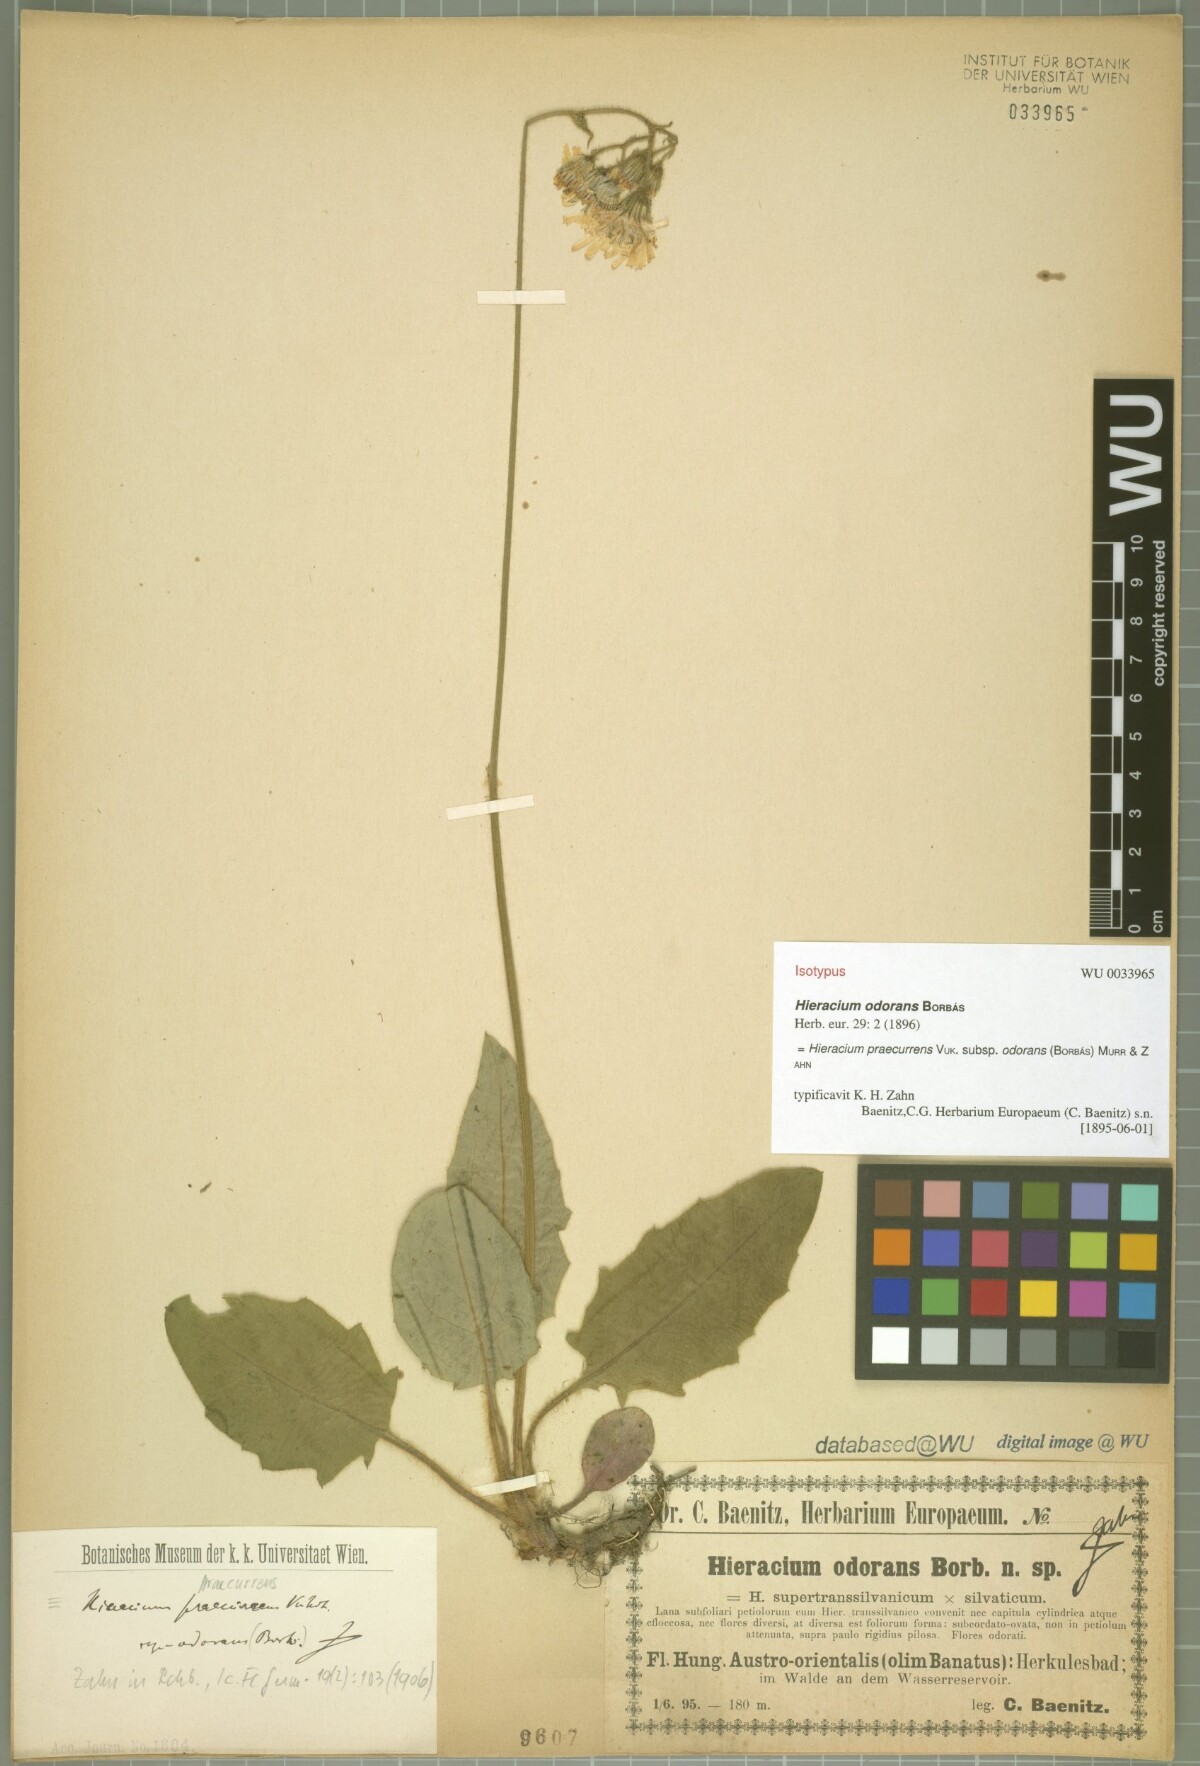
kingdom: Plantae
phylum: Tracheophyta
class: Magnoliopsida
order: Asterales
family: Asteraceae
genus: Hieracium
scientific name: Hieracium rotundatum
